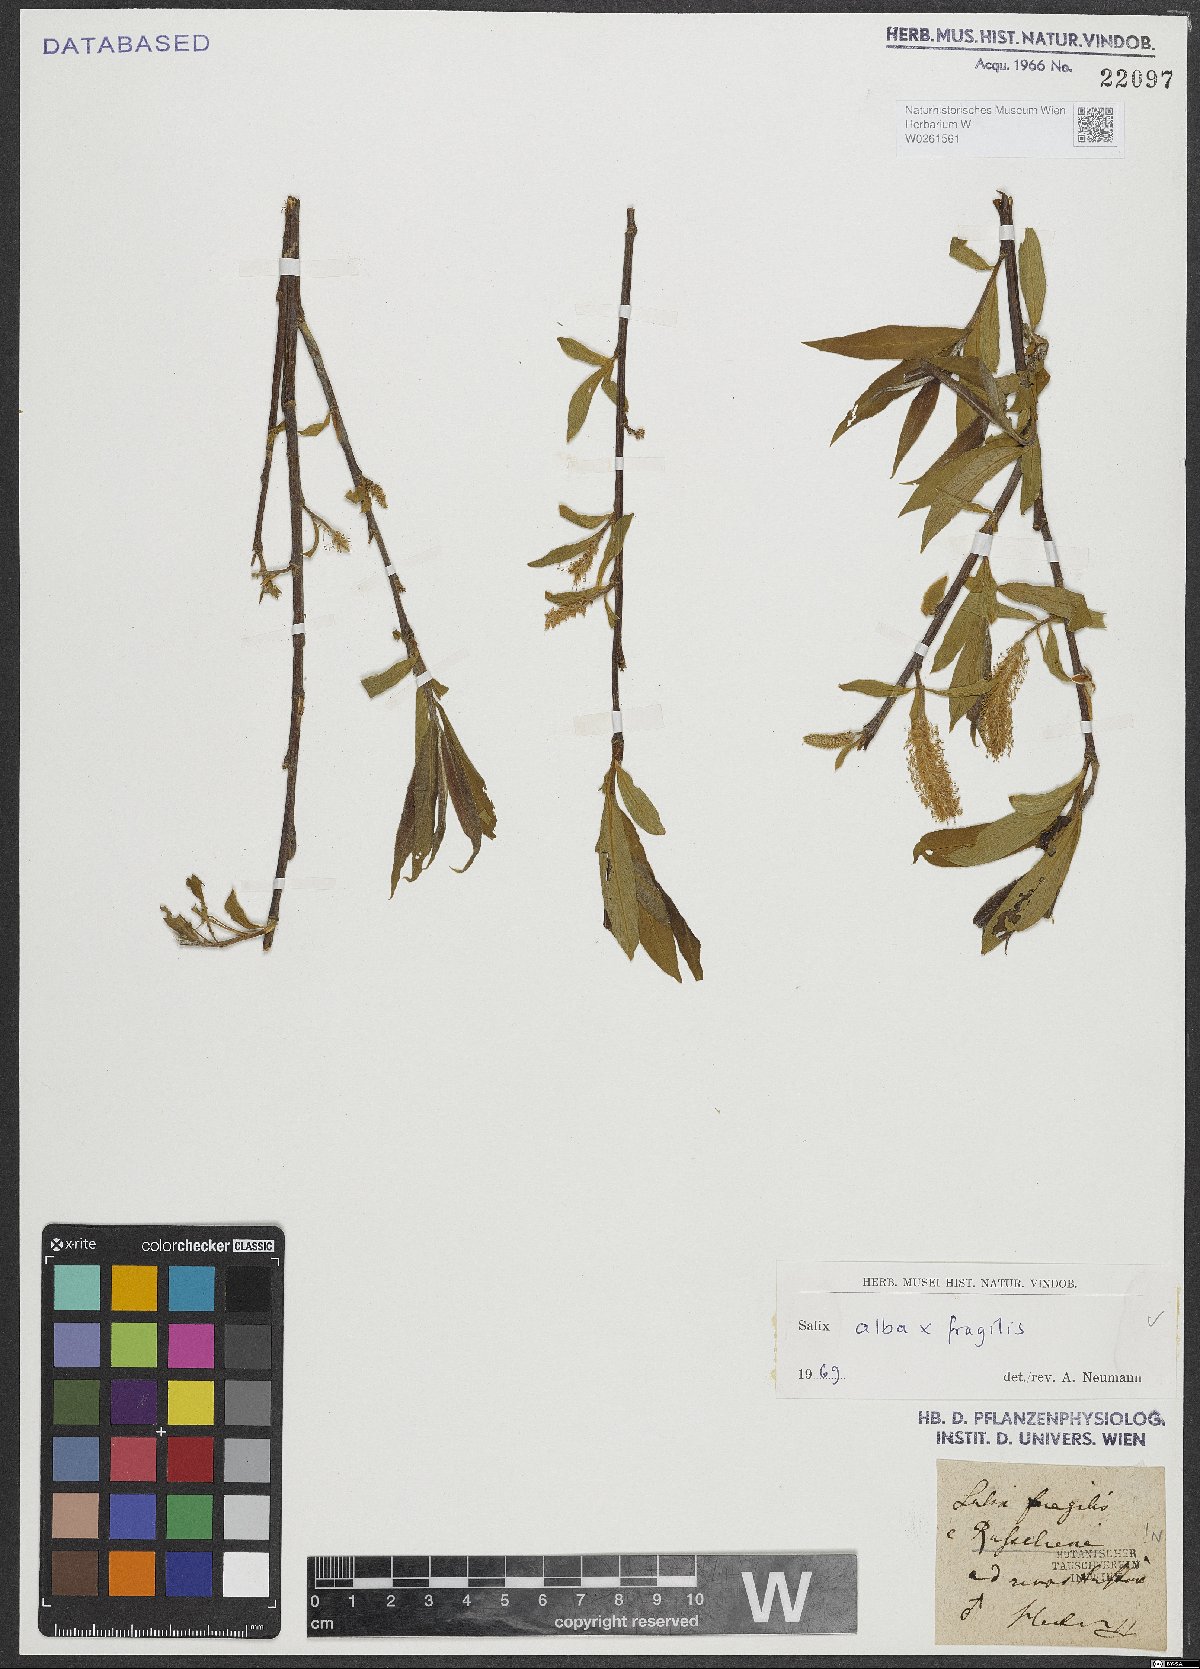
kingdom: Plantae
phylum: Tracheophyta
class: Magnoliopsida
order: Malpighiales
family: Salicaceae
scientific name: Salicaceae
